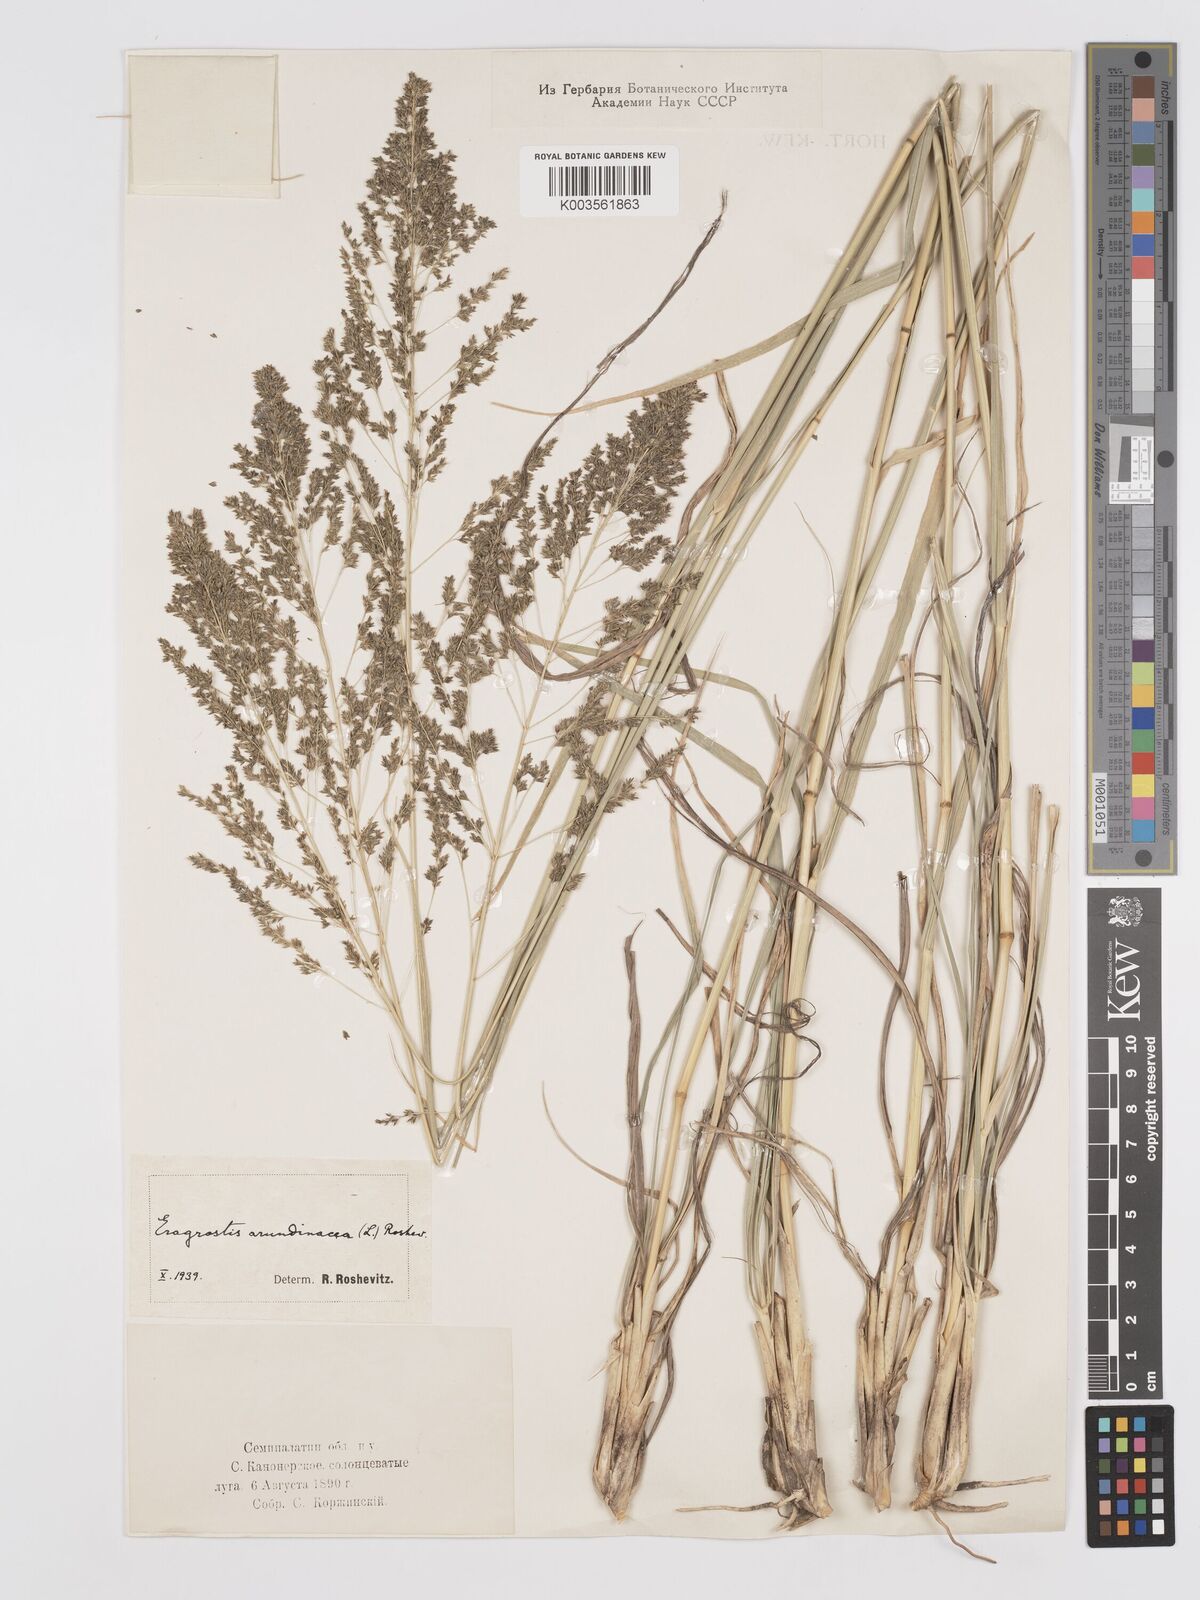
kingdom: Plantae
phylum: Tracheophyta
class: Liliopsida
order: Poales
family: Poaceae
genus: Eragrostis
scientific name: Eragrostis collina
